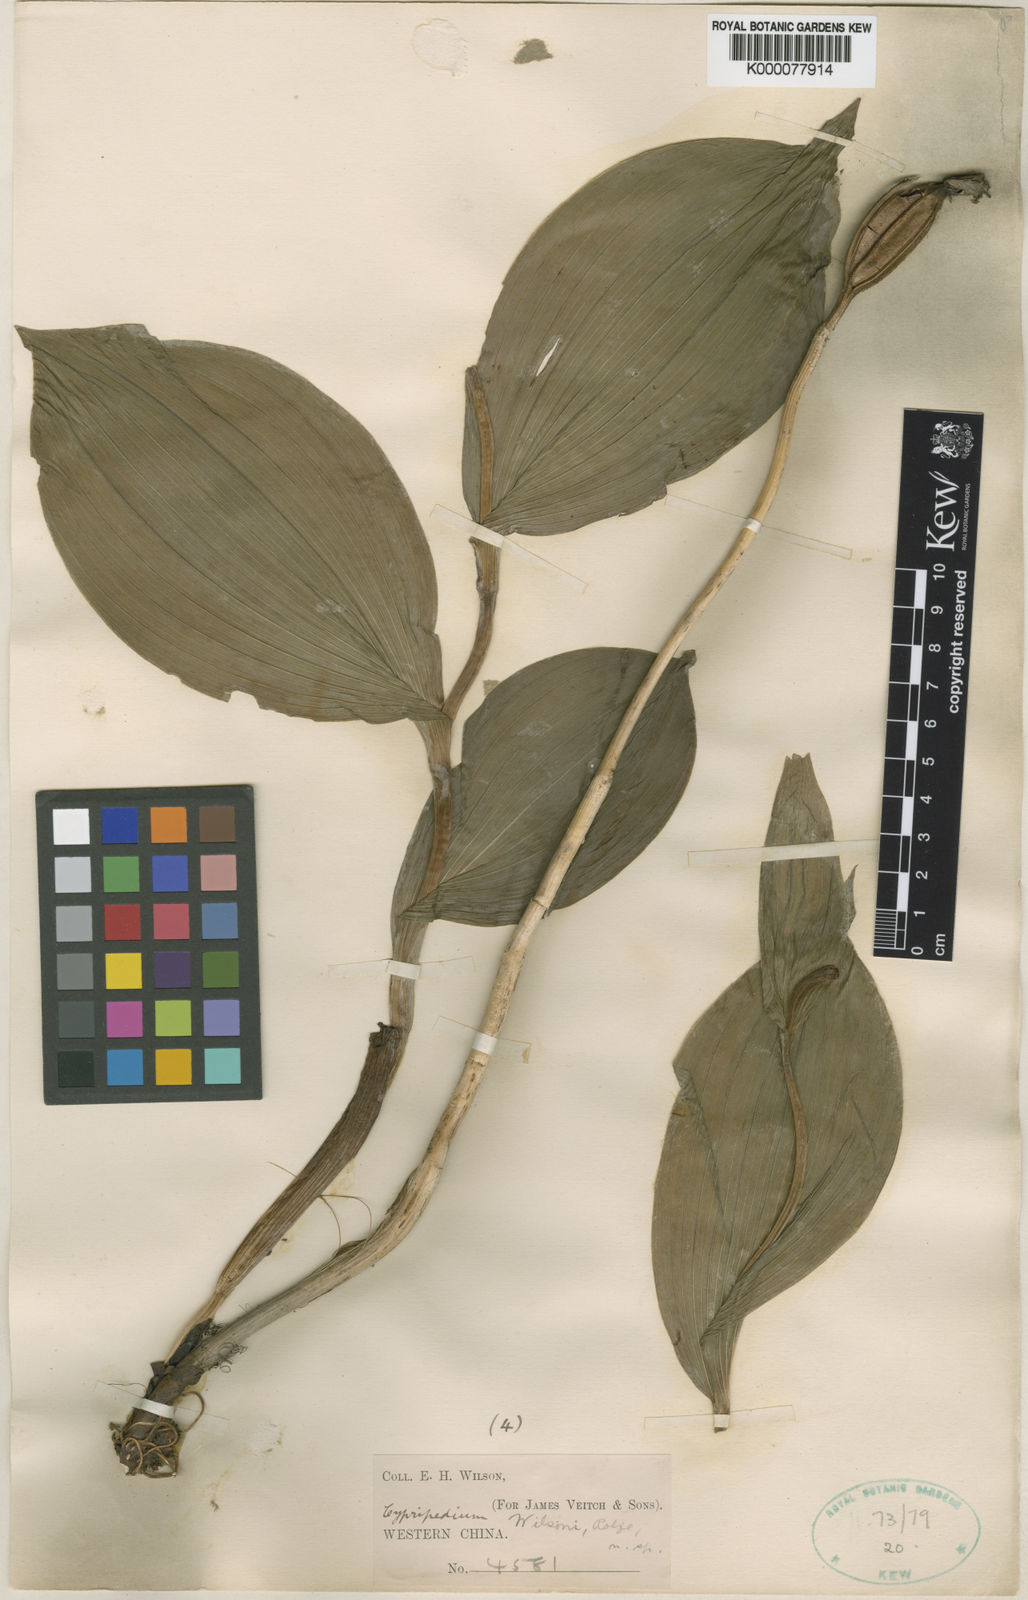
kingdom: Plantae
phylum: Tracheophyta
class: Liliopsida
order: Asparagales
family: Orchidaceae
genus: Cypripedium
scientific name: Cypripedium fasciolatum
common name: Striped lady slipper
